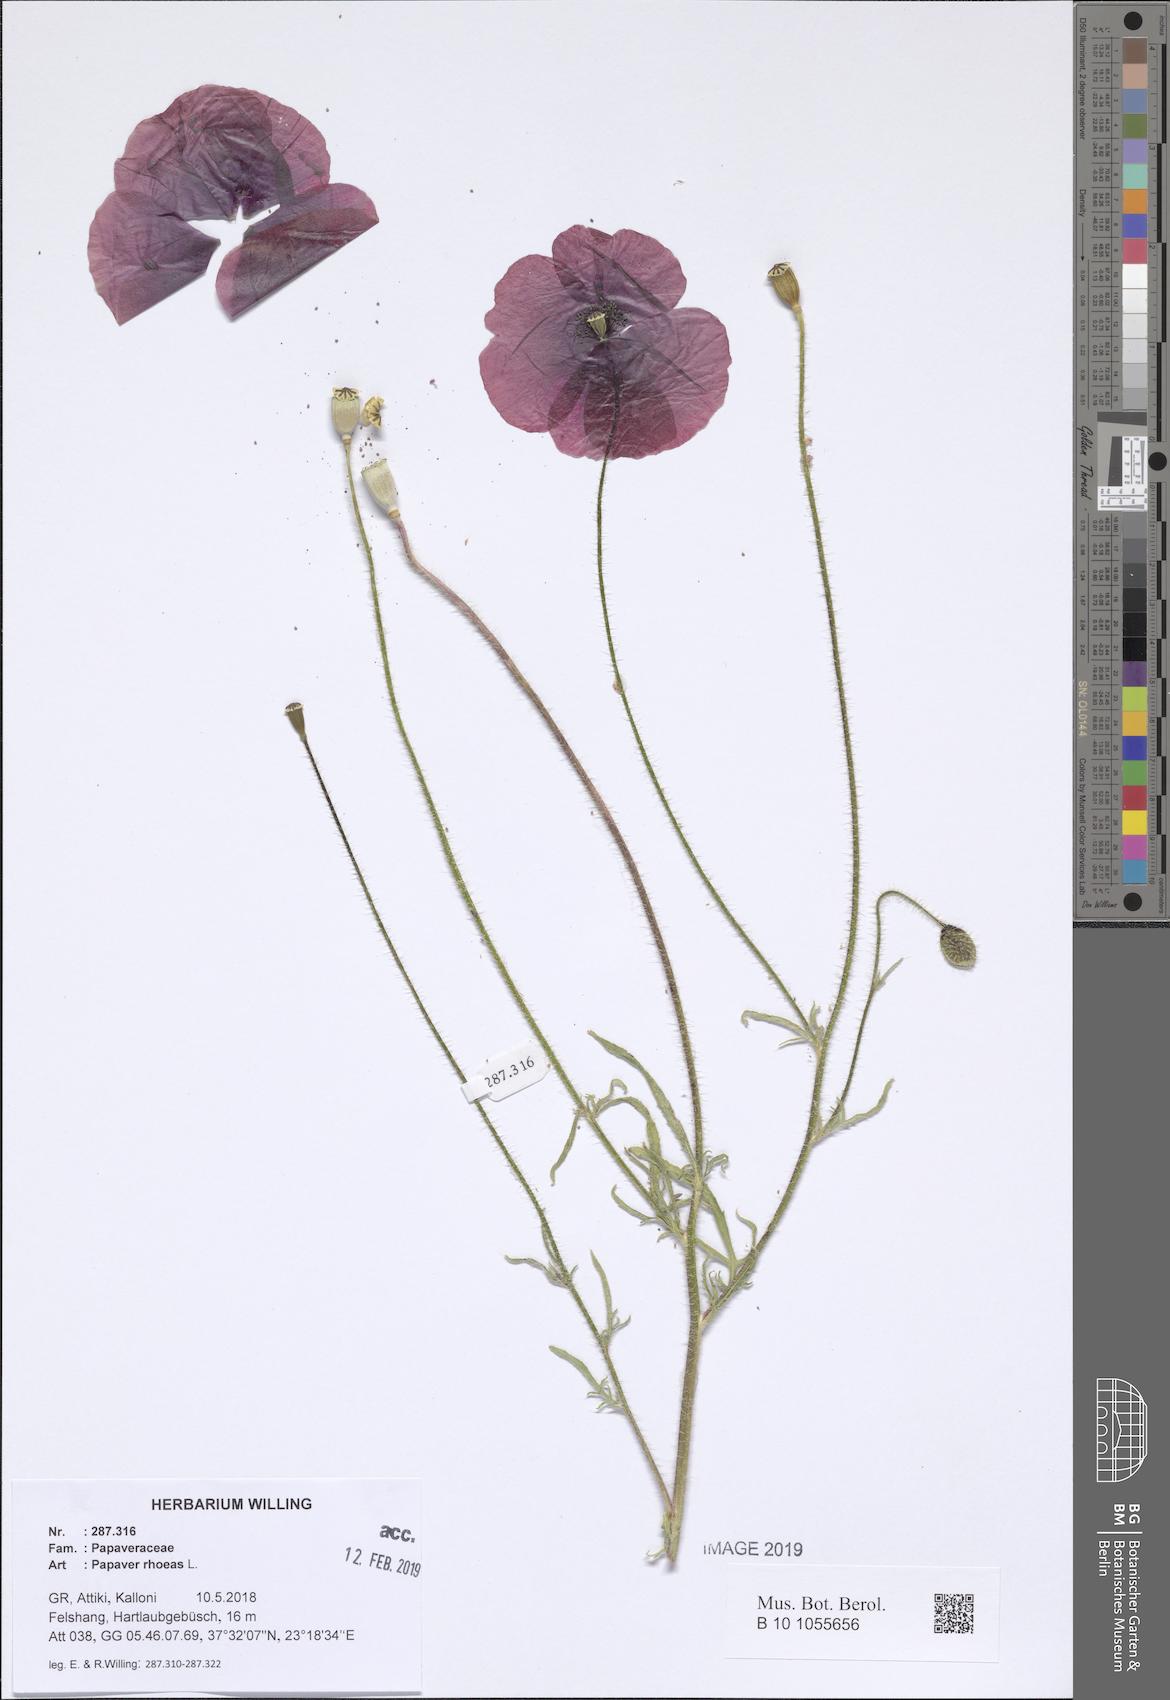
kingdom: Plantae
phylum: Tracheophyta
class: Magnoliopsida
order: Ranunculales
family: Papaveraceae
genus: Papaver
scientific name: Papaver rhoeas
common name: Corn poppy
